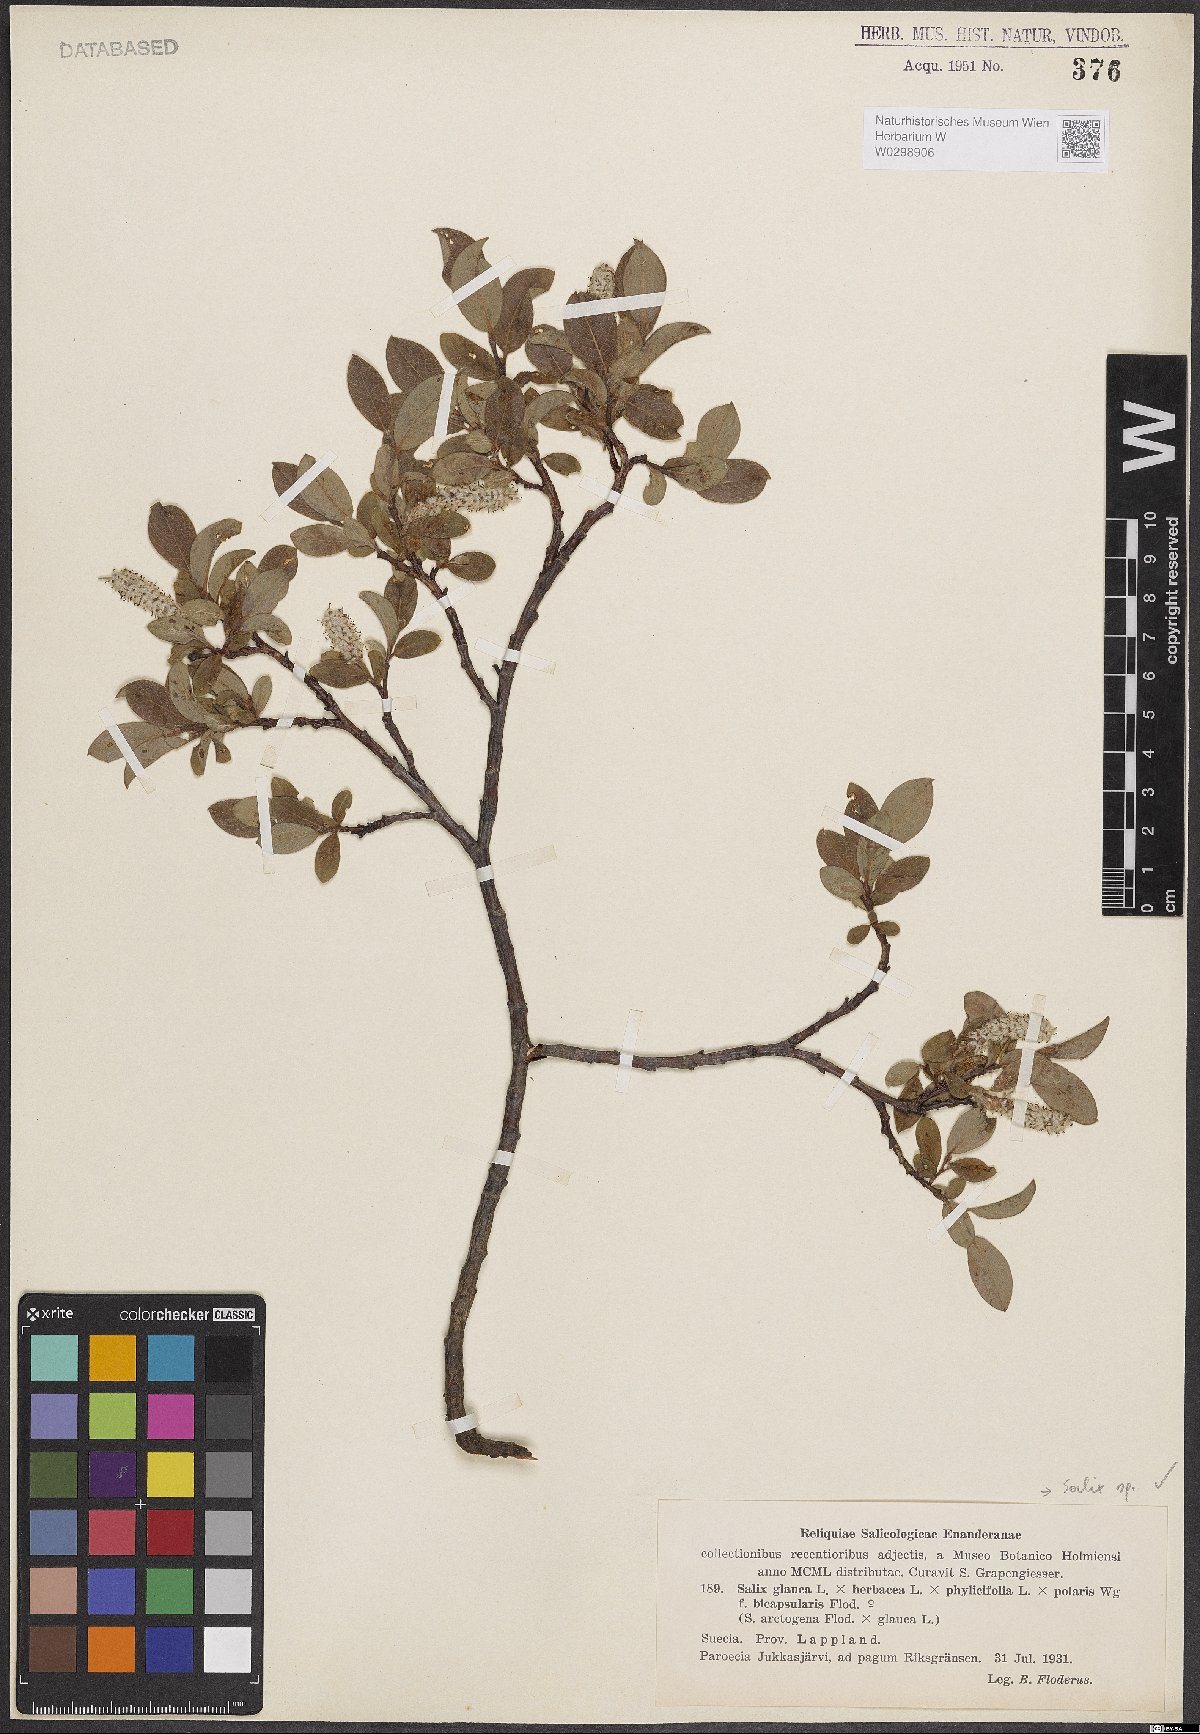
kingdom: Plantae
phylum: Tracheophyta
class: Magnoliopsida
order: Malpighiales
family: Salicaceae
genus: Salix
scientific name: Salix
